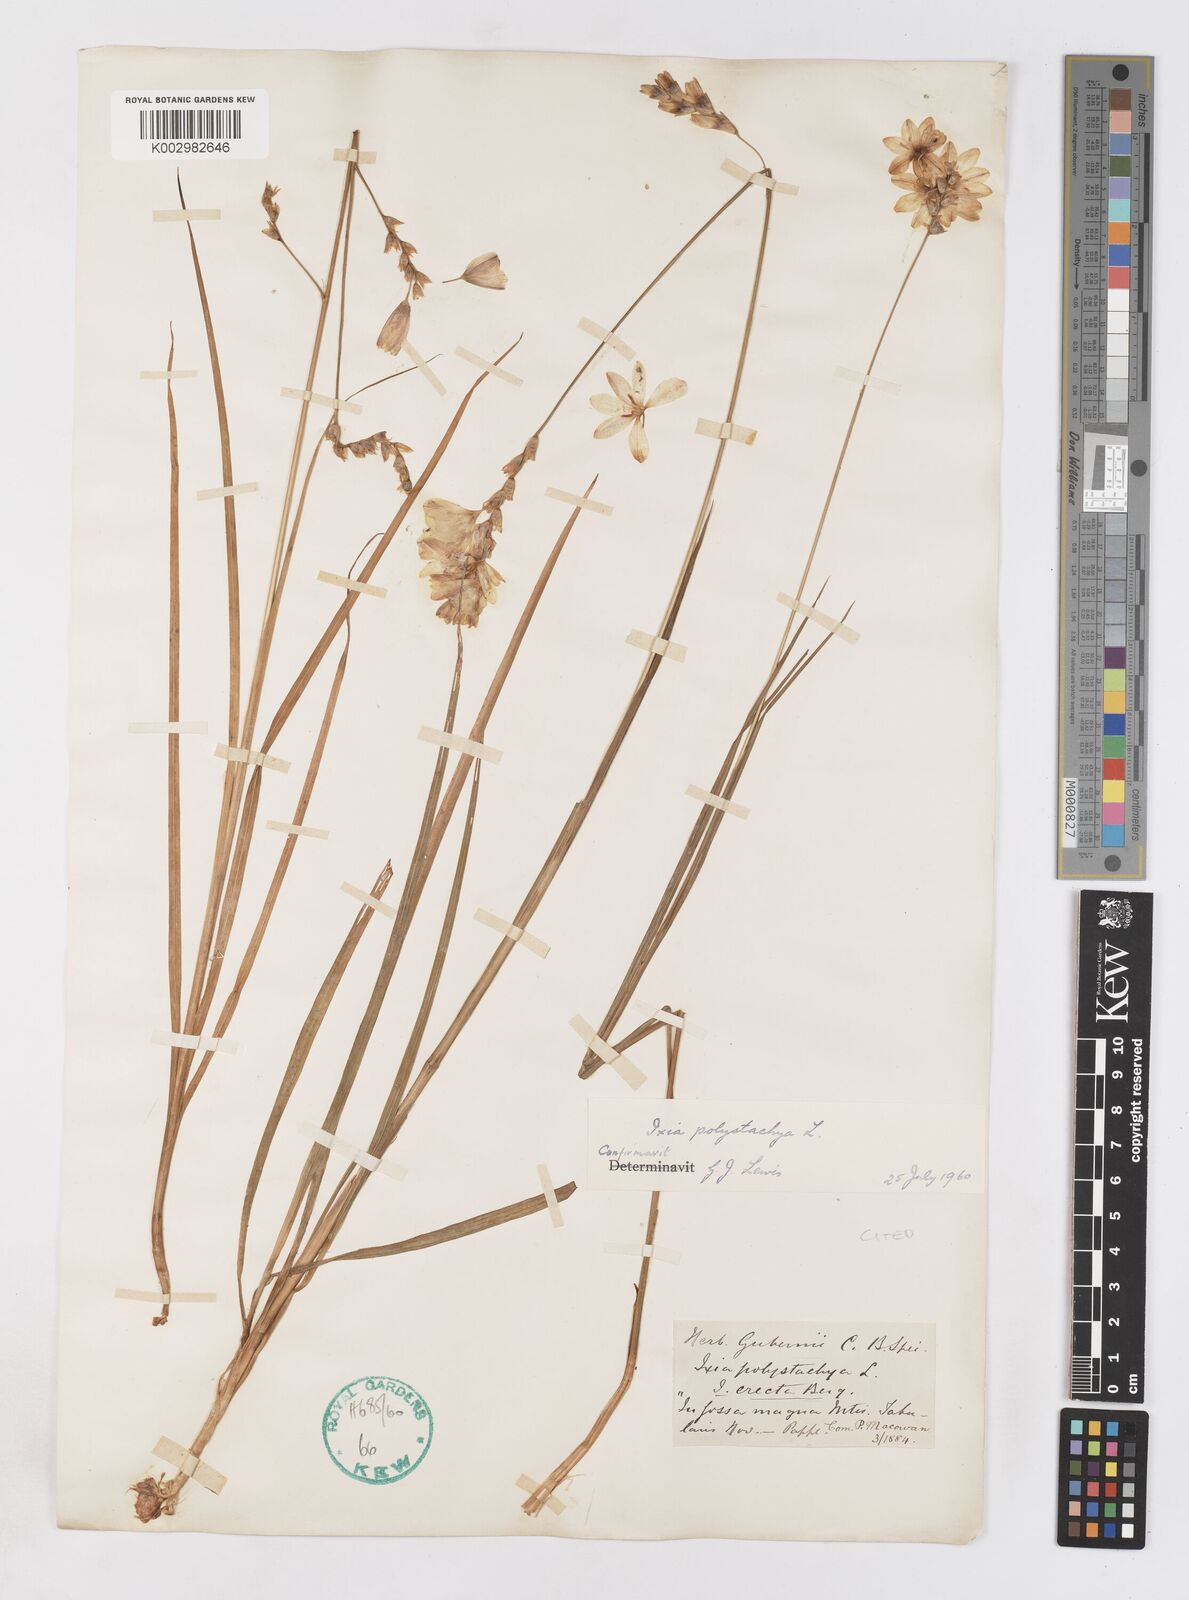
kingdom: Plantae
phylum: Tracheophyta
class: Liliopsida
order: Asparagales
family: Iridaceae
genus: Ixia
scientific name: Ixia polystachya
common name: White-and-yellow-flower cornlily
